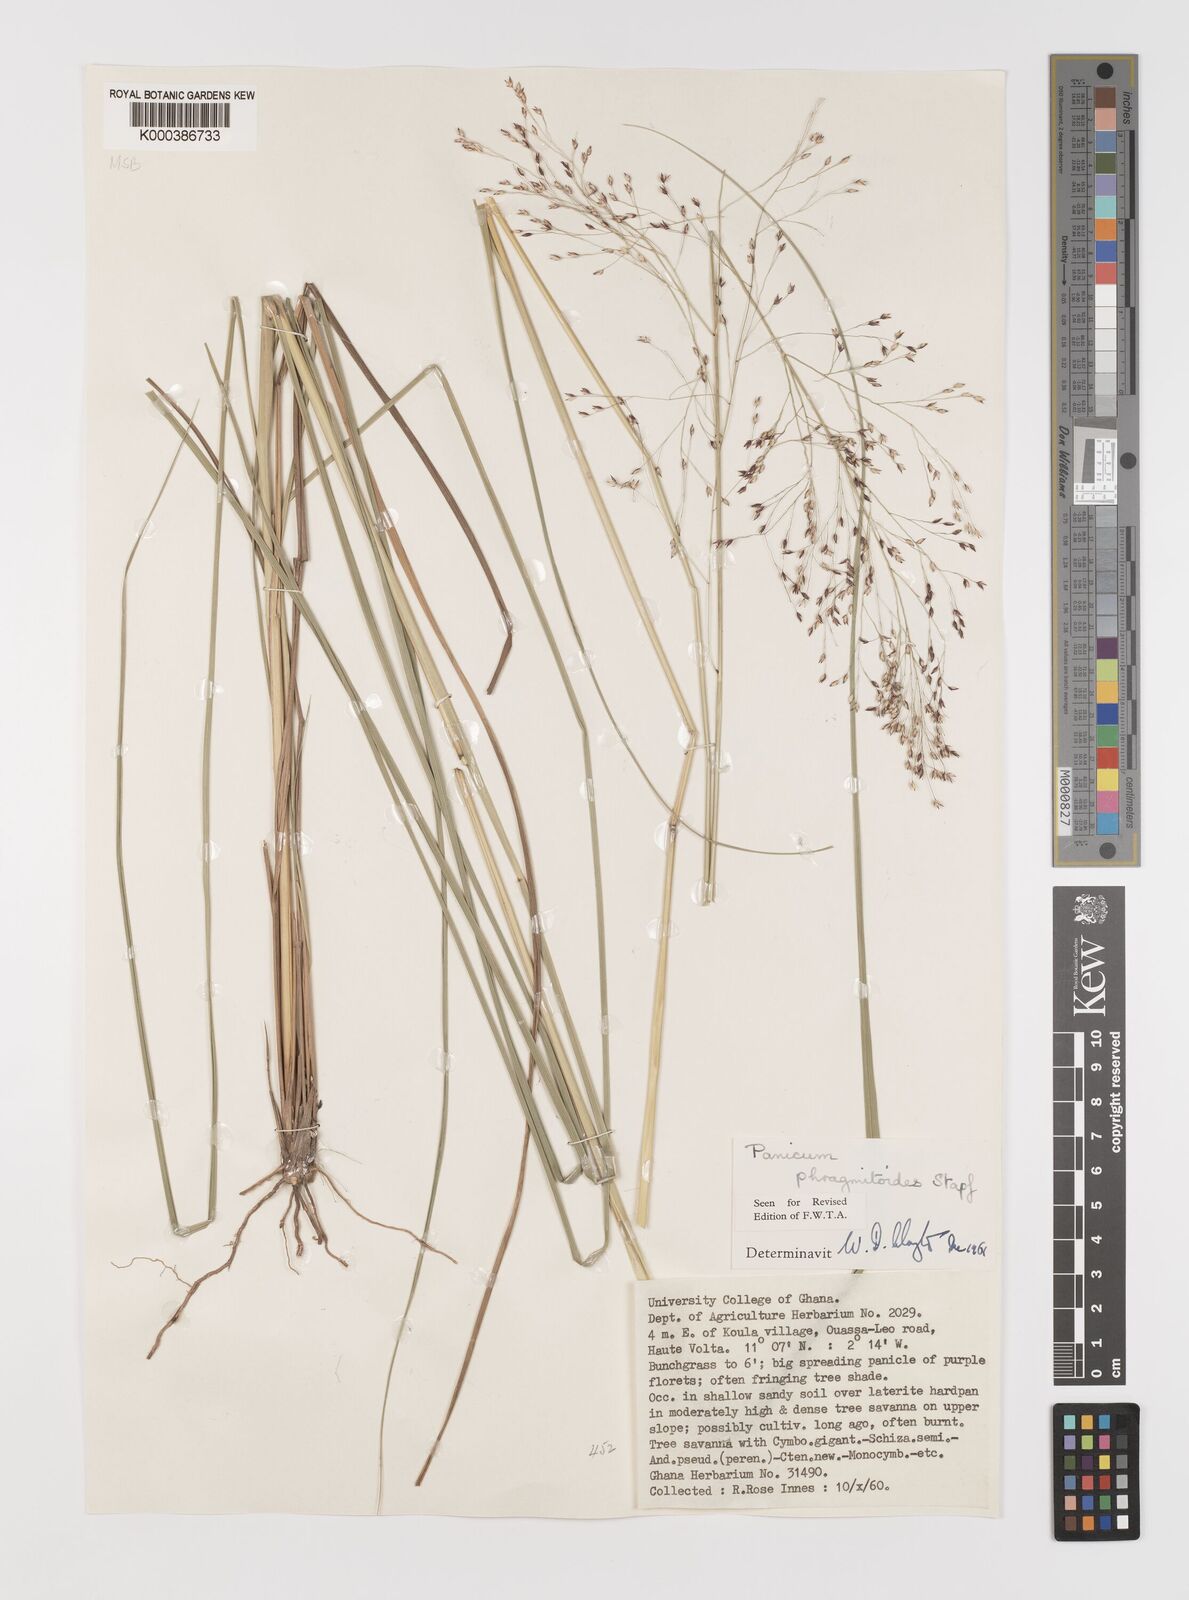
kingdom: Plantae
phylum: Tracheophyta
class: Liliopsida
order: Poales
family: Poaceae
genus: Panicum
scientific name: Panicum phragmitoides
